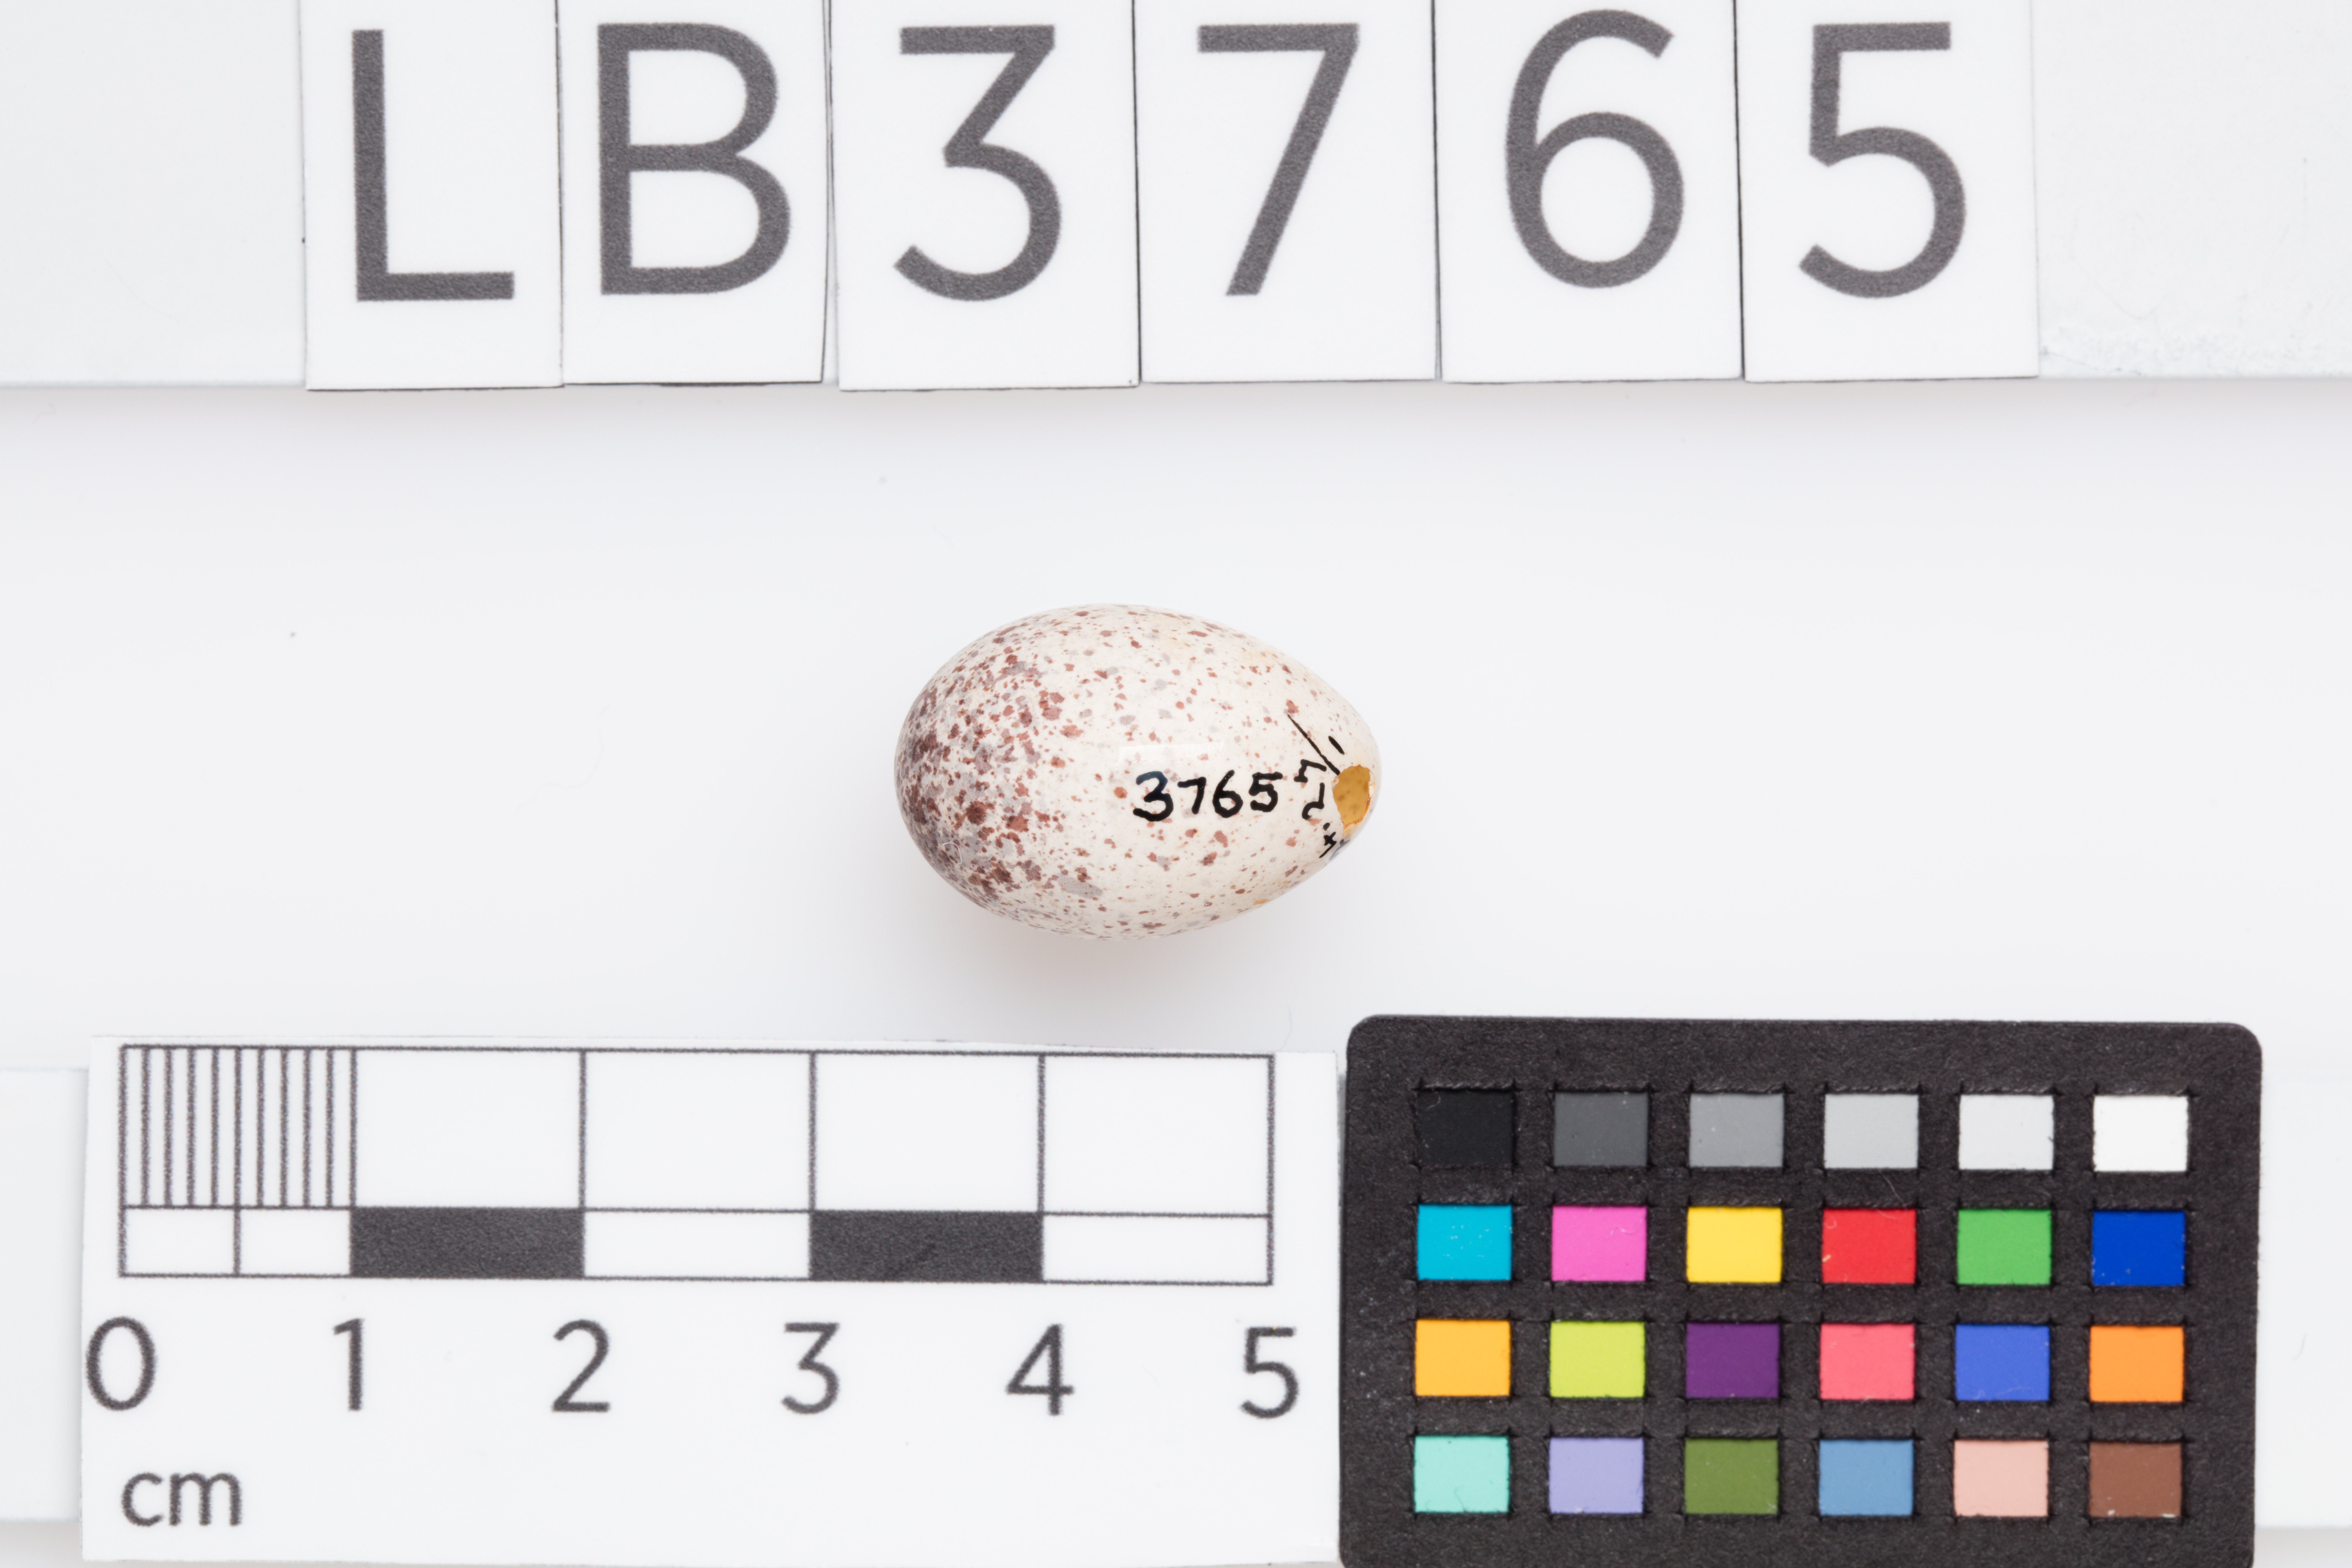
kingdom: Animalia
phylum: Chordata
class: Aves
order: Passeriformes
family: Locustellidae
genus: Megalurus
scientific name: Megalurus punctatus
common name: New zealand fernbird
